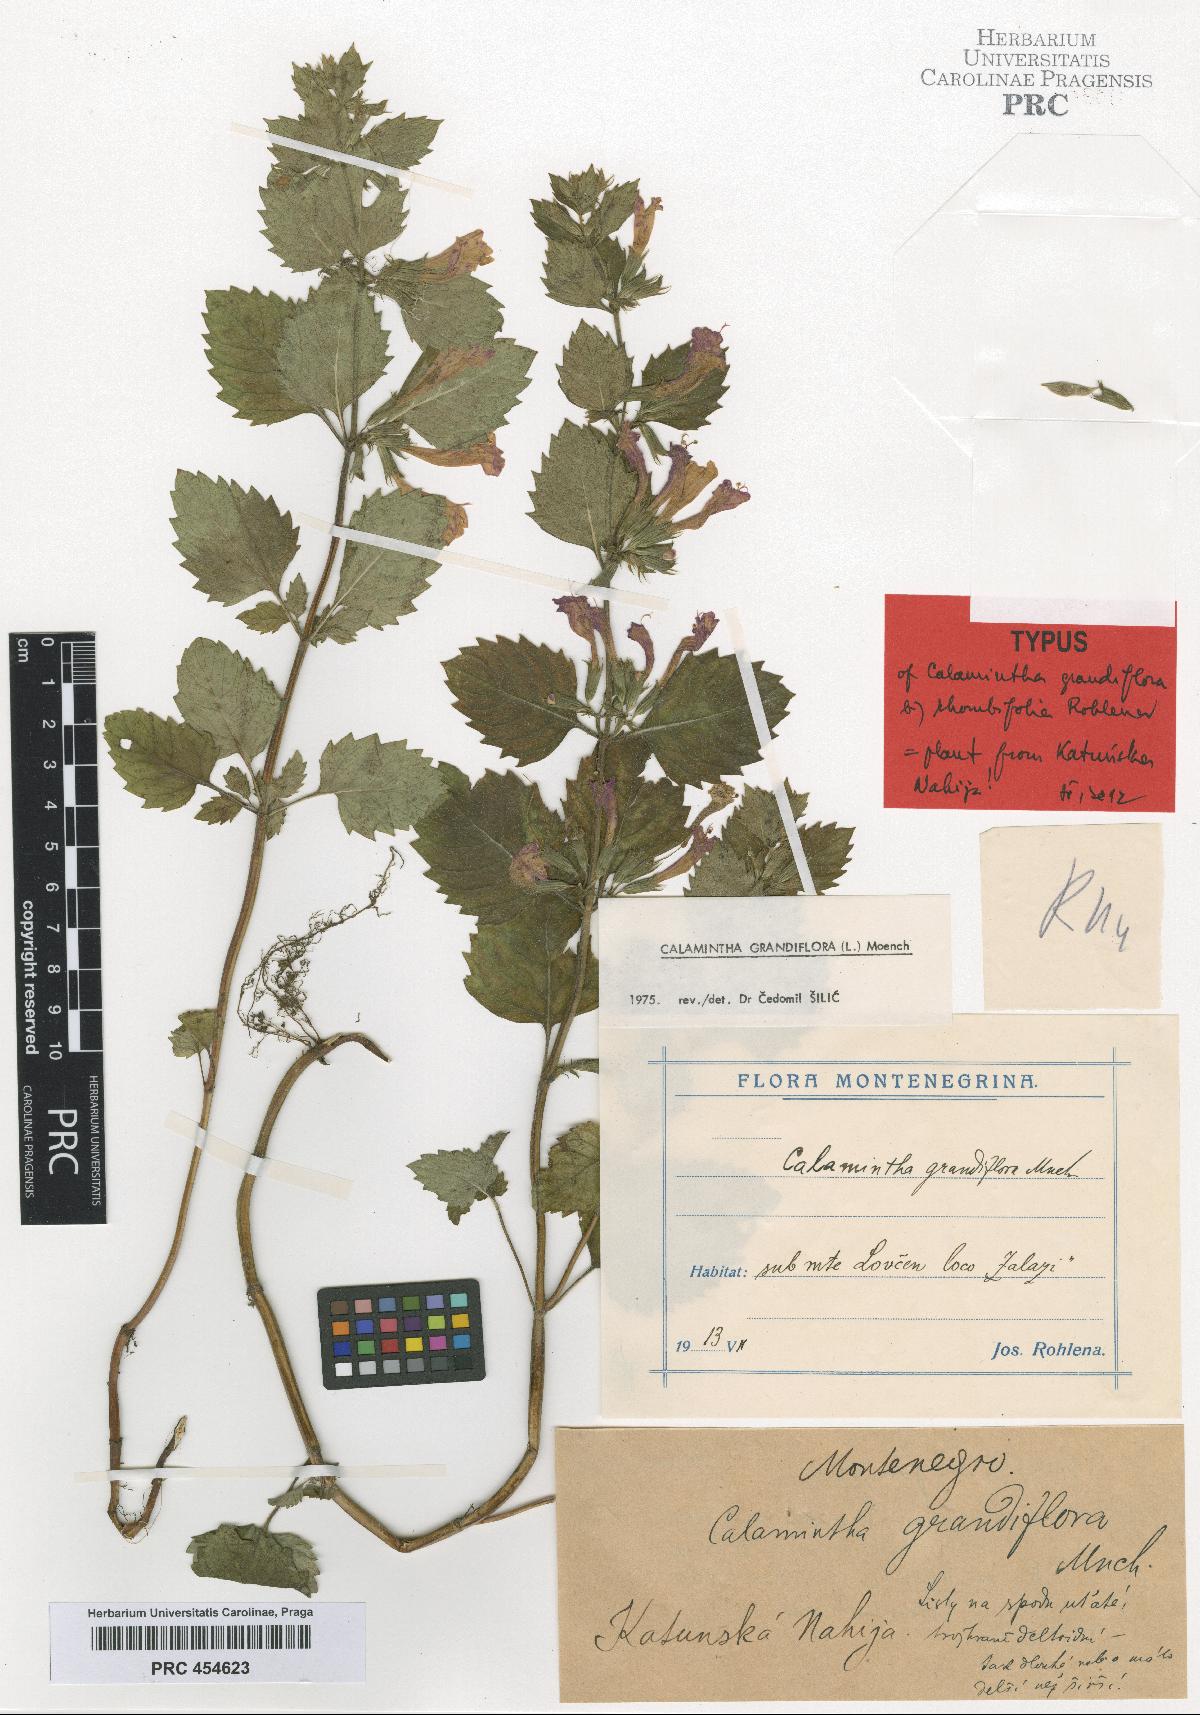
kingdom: Plantae
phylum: Tracheophyta
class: Magnoliopsida
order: Lamiales
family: Lamiaceae
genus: Clinopodium
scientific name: Clinopodium grandiflorum
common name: Greater calamint
